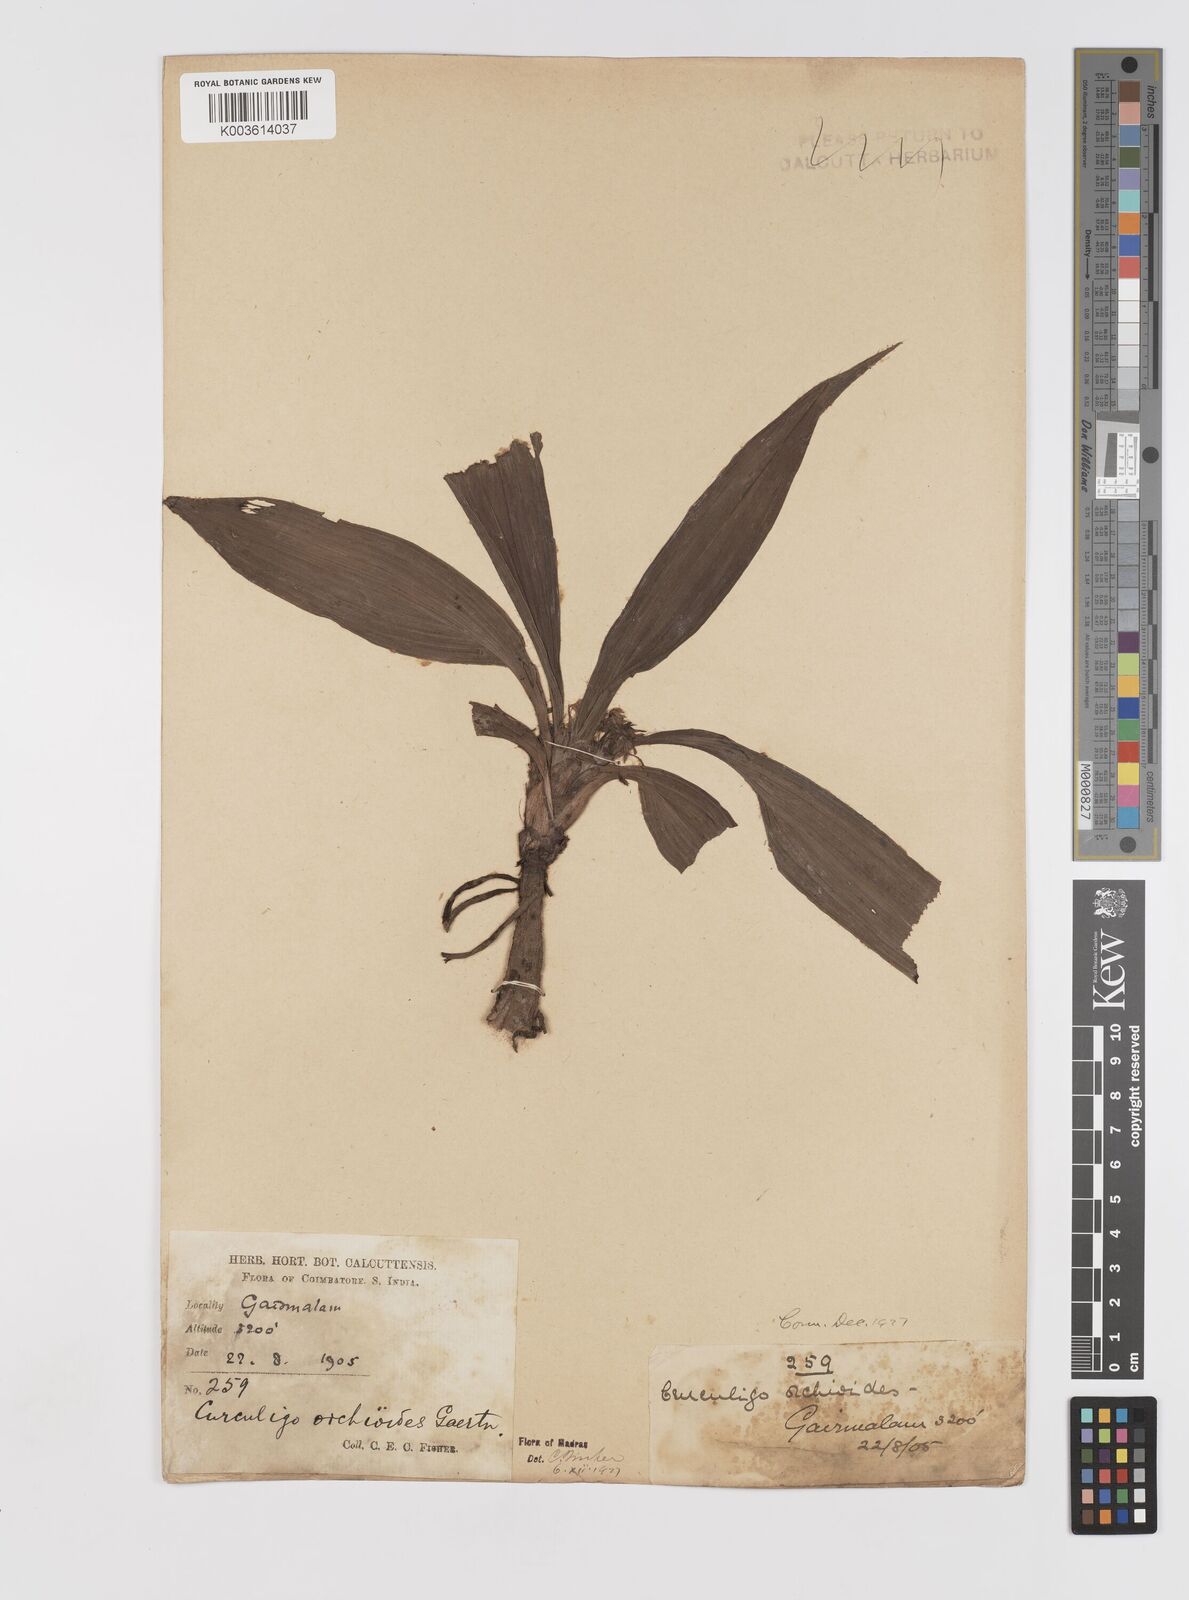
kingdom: Plantae
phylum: Tracheophyta
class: Liliopsida
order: Asparagales
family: Hypoxidaceae
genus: Curculigo
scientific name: Curculigo orchioides
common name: Golden eye-grass
